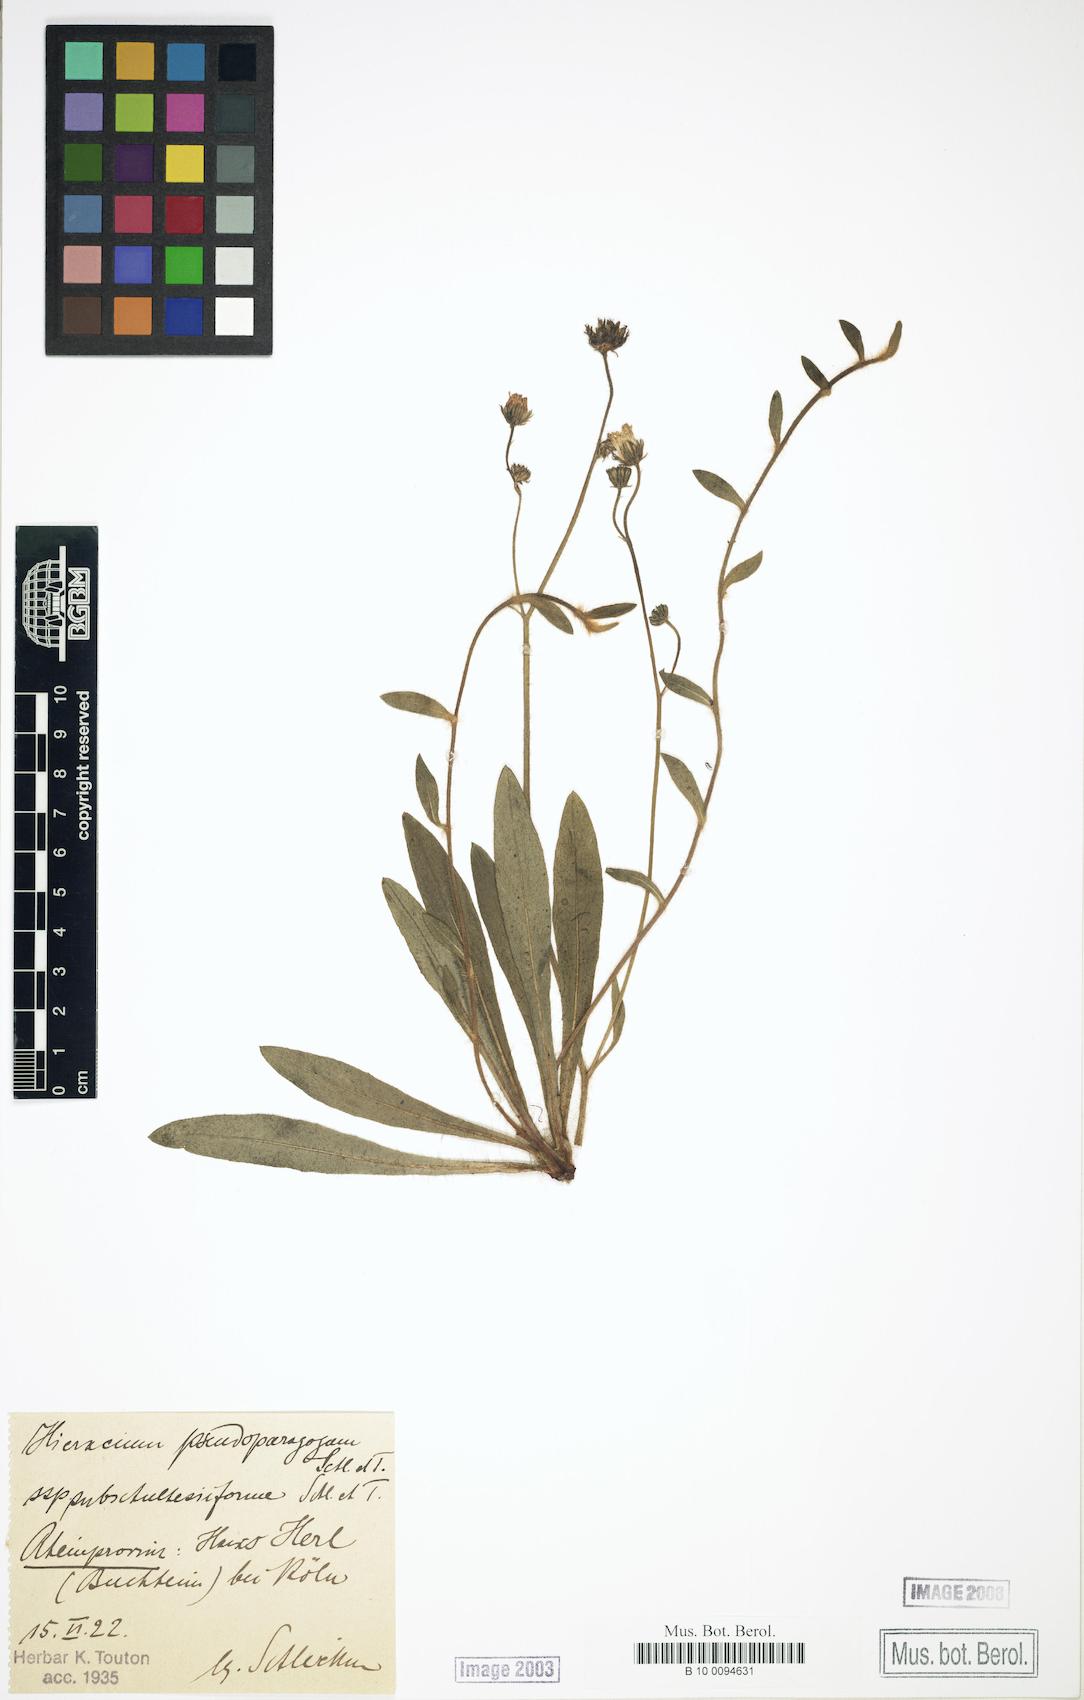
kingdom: Plantae
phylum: Tracheophyta
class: Magnoliopsida
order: Asterales
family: Asteraceae
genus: Pilosella
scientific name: Pilosella pseudoparagoga
